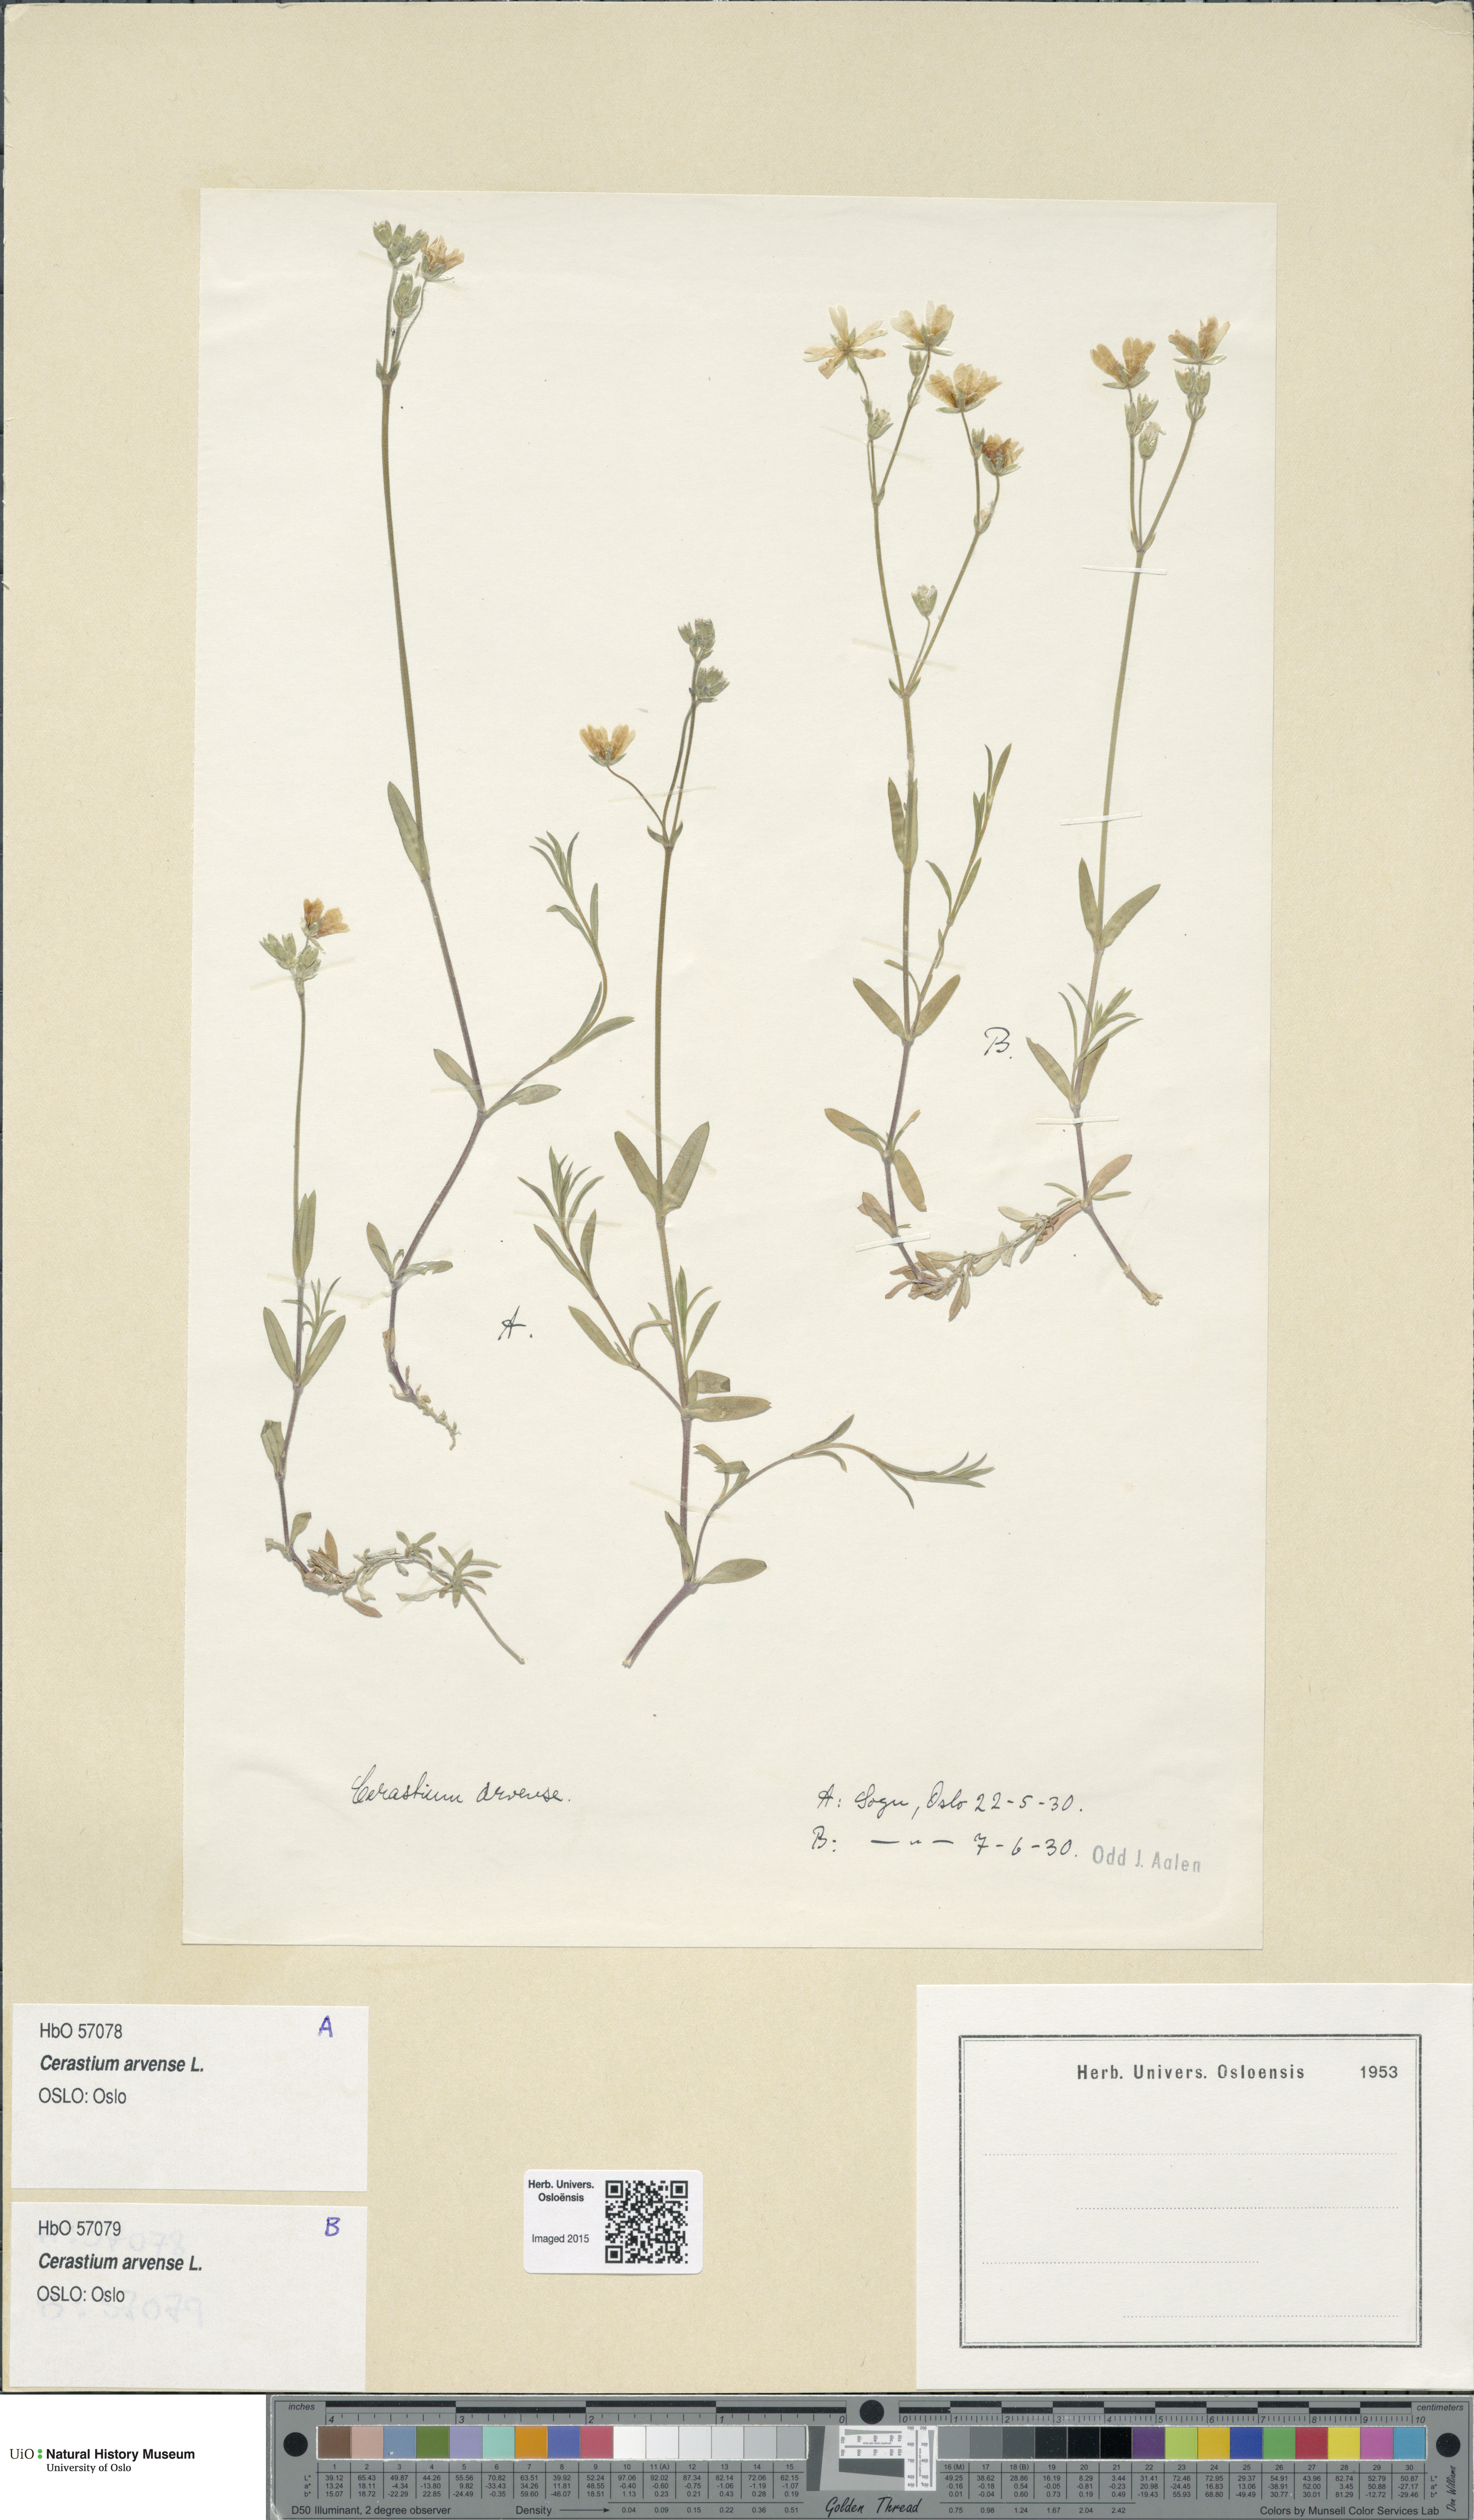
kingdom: Plantae
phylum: Tracheophyta
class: Magnoliopsida
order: Caryophyllales
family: Caryophyllaceae
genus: Cerastium
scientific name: Cerastium arvense
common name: Field mouse-ear
